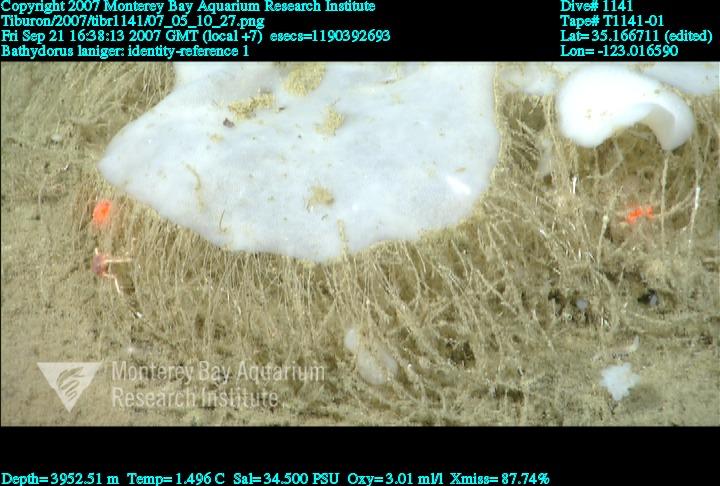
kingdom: Animalia
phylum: Porifera
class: Hexactinellida
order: Lyssacinosida
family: Rossellidae
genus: Bathydorus
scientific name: Bathydorus laniger
